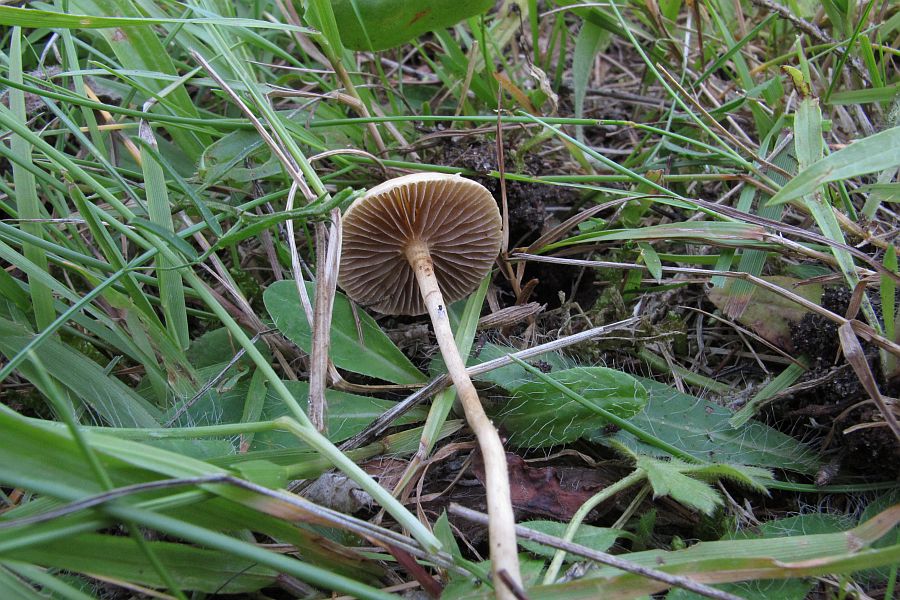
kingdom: Fungi
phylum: Basidiomycota
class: Agaricomycetes
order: Agaricales
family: Strophariaceae
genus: Agrocybe
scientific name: Agrocybe pediades
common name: almindelig agerhat
